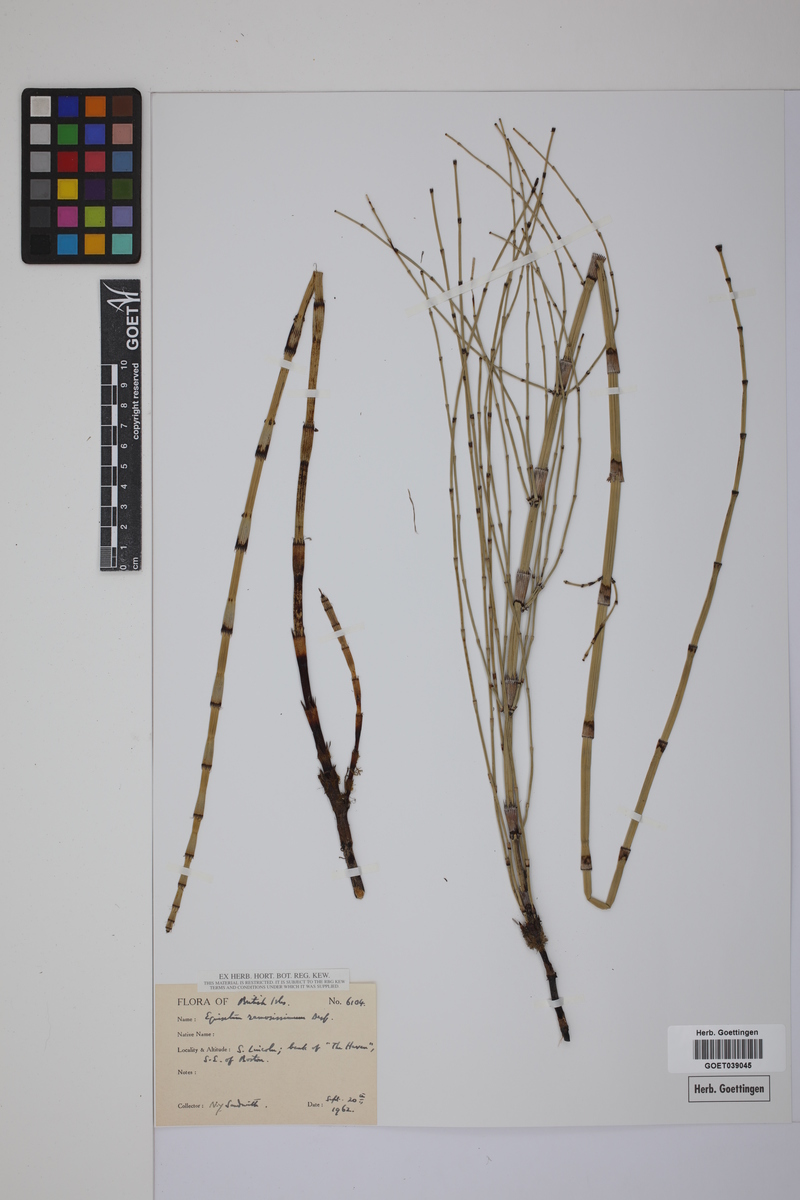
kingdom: Plantae
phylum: Tracheophyta
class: Polypodiopsida
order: Equisetales
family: Equisetaceae
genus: Equisetum
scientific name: Equisetum giganteum
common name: Giant horsetail
